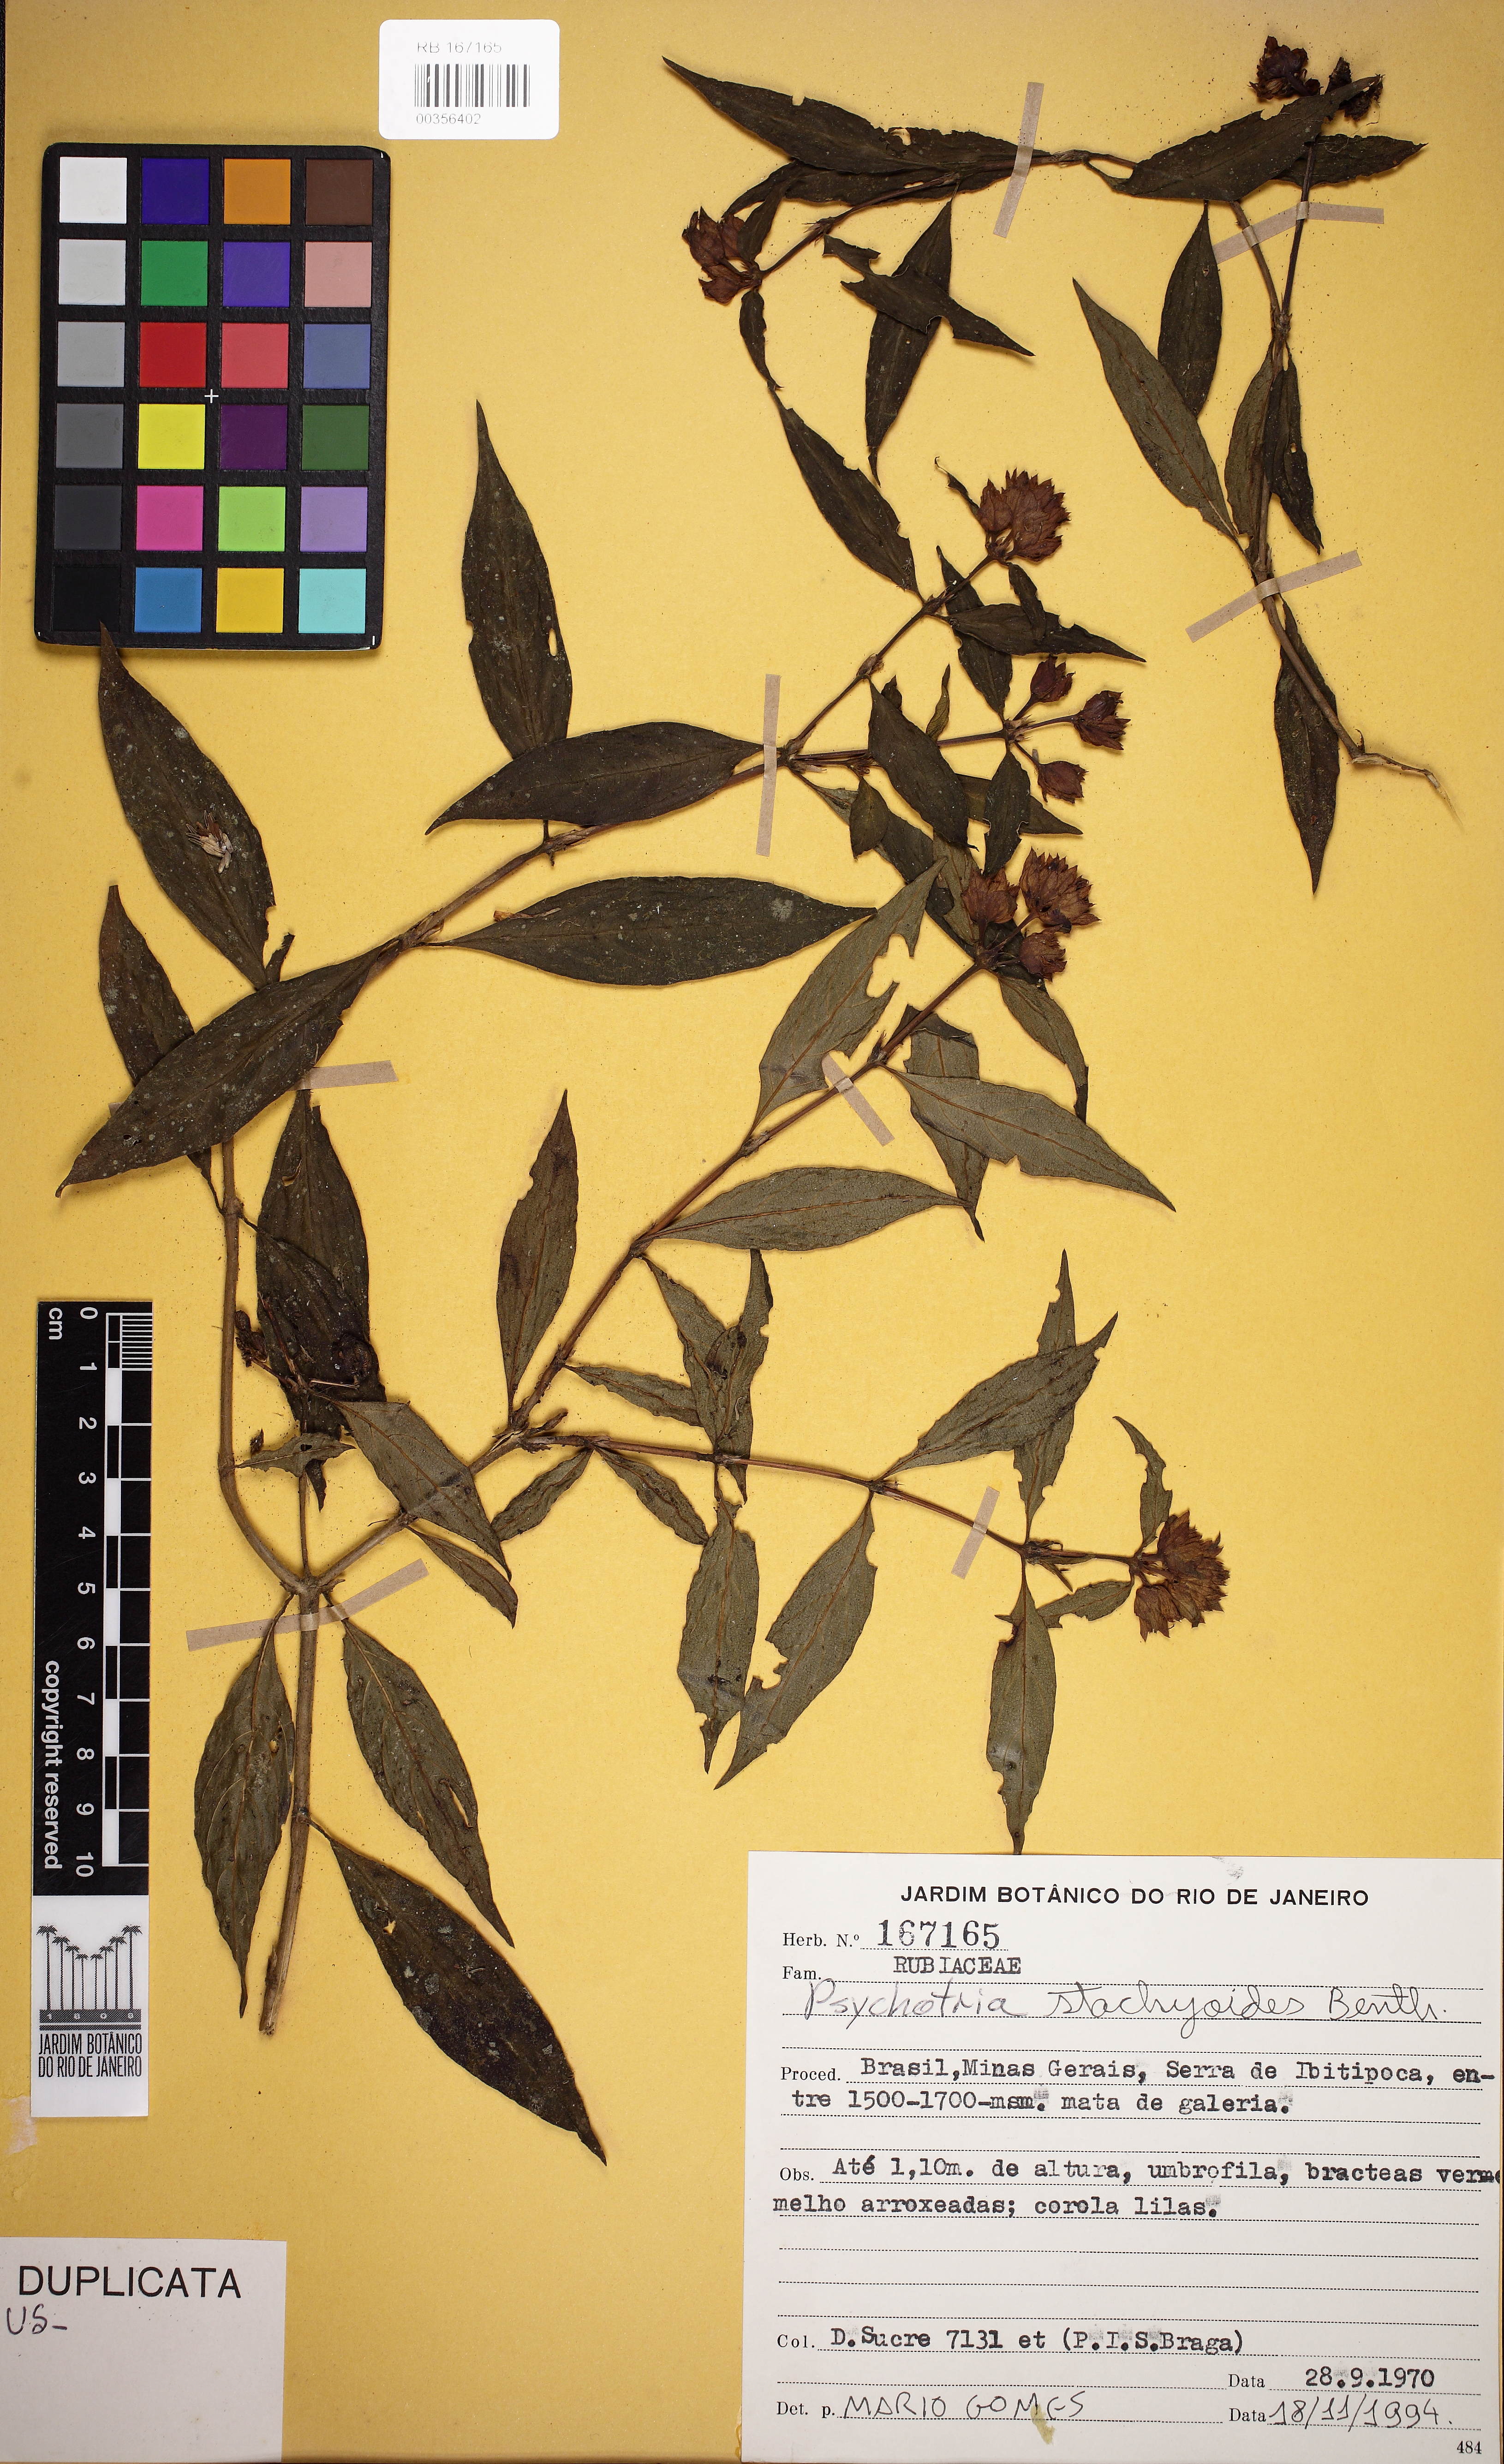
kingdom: Plantae
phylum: Tracheophyta
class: Magnoliopsida
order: Gentianales
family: Rubiaceae
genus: Psychotria
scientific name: Psychotria stachyoides
